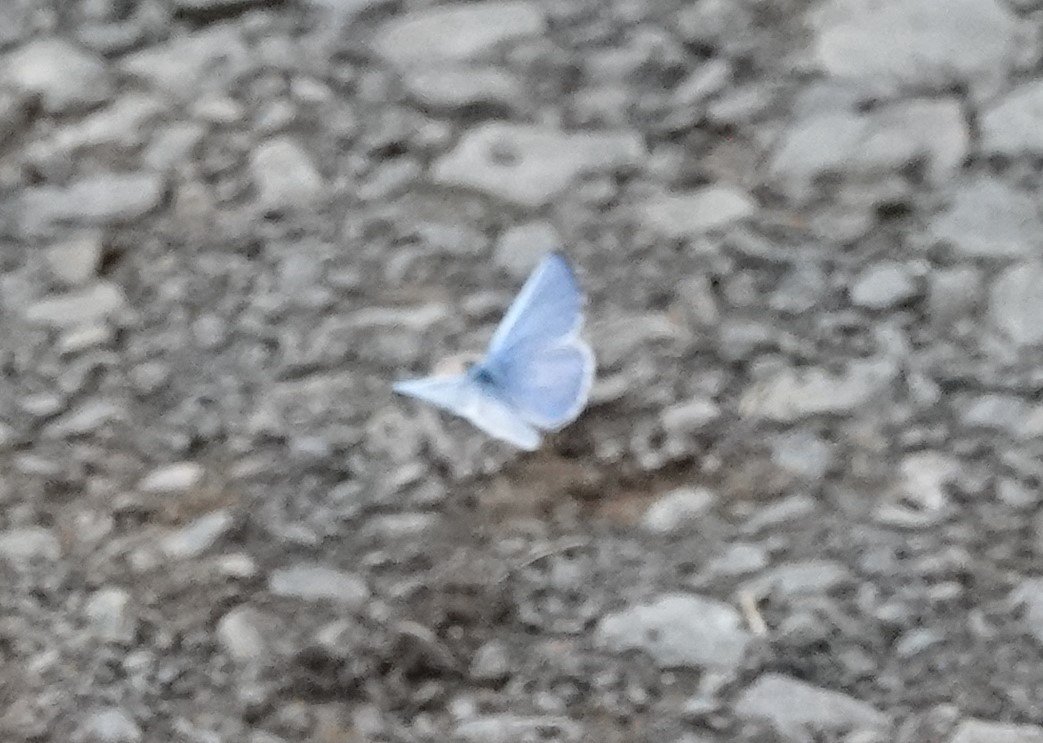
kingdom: Animalia
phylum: Arthropoda
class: Insecta
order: Lepidoptera
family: Lycaenidae
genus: Cyaniris
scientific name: Cyaniris neglecta
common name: Summer Azure
